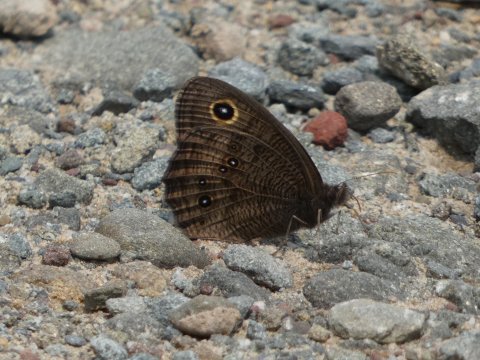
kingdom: Animalia
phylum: Arthropoda
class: Insecta
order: Lepidoptera
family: Nymphalidae
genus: Cercyonis
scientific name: Cercyonis pegala
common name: Common Wood-Nymph
